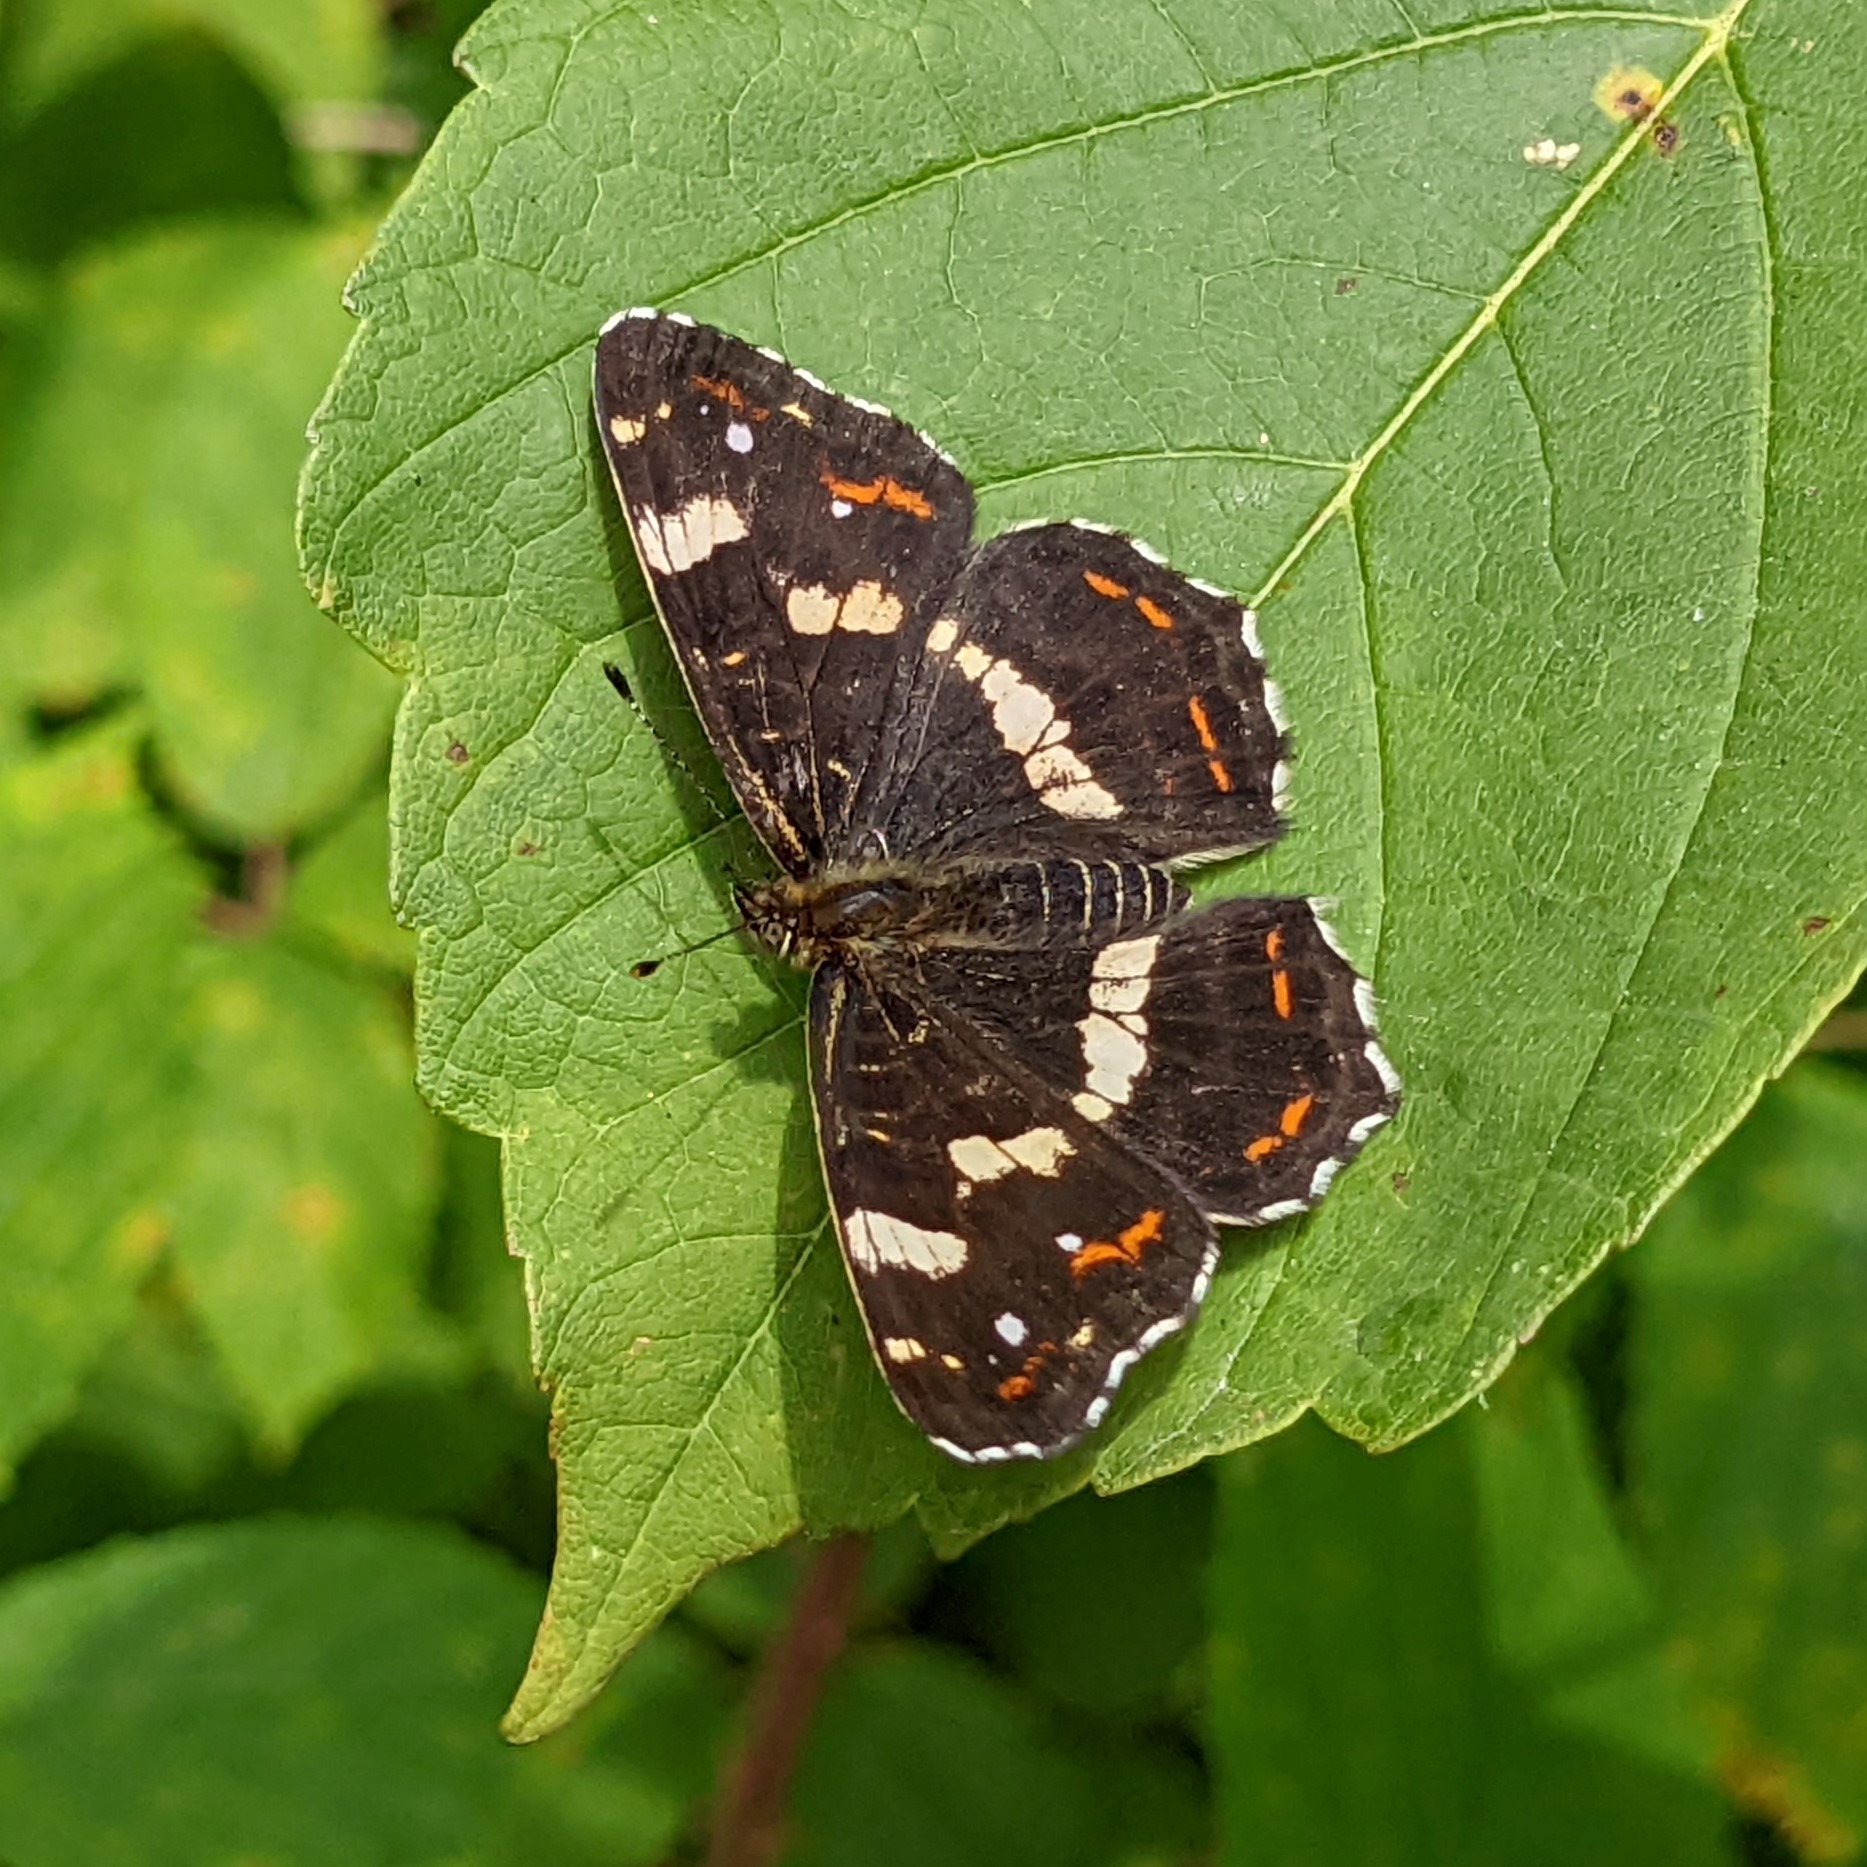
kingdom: Animalia
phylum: Arthropoda
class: Insecta
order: Lepidoptera
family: Nymphalidae
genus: Araschnia
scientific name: Araschnia levana
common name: Nældesommerfugl
